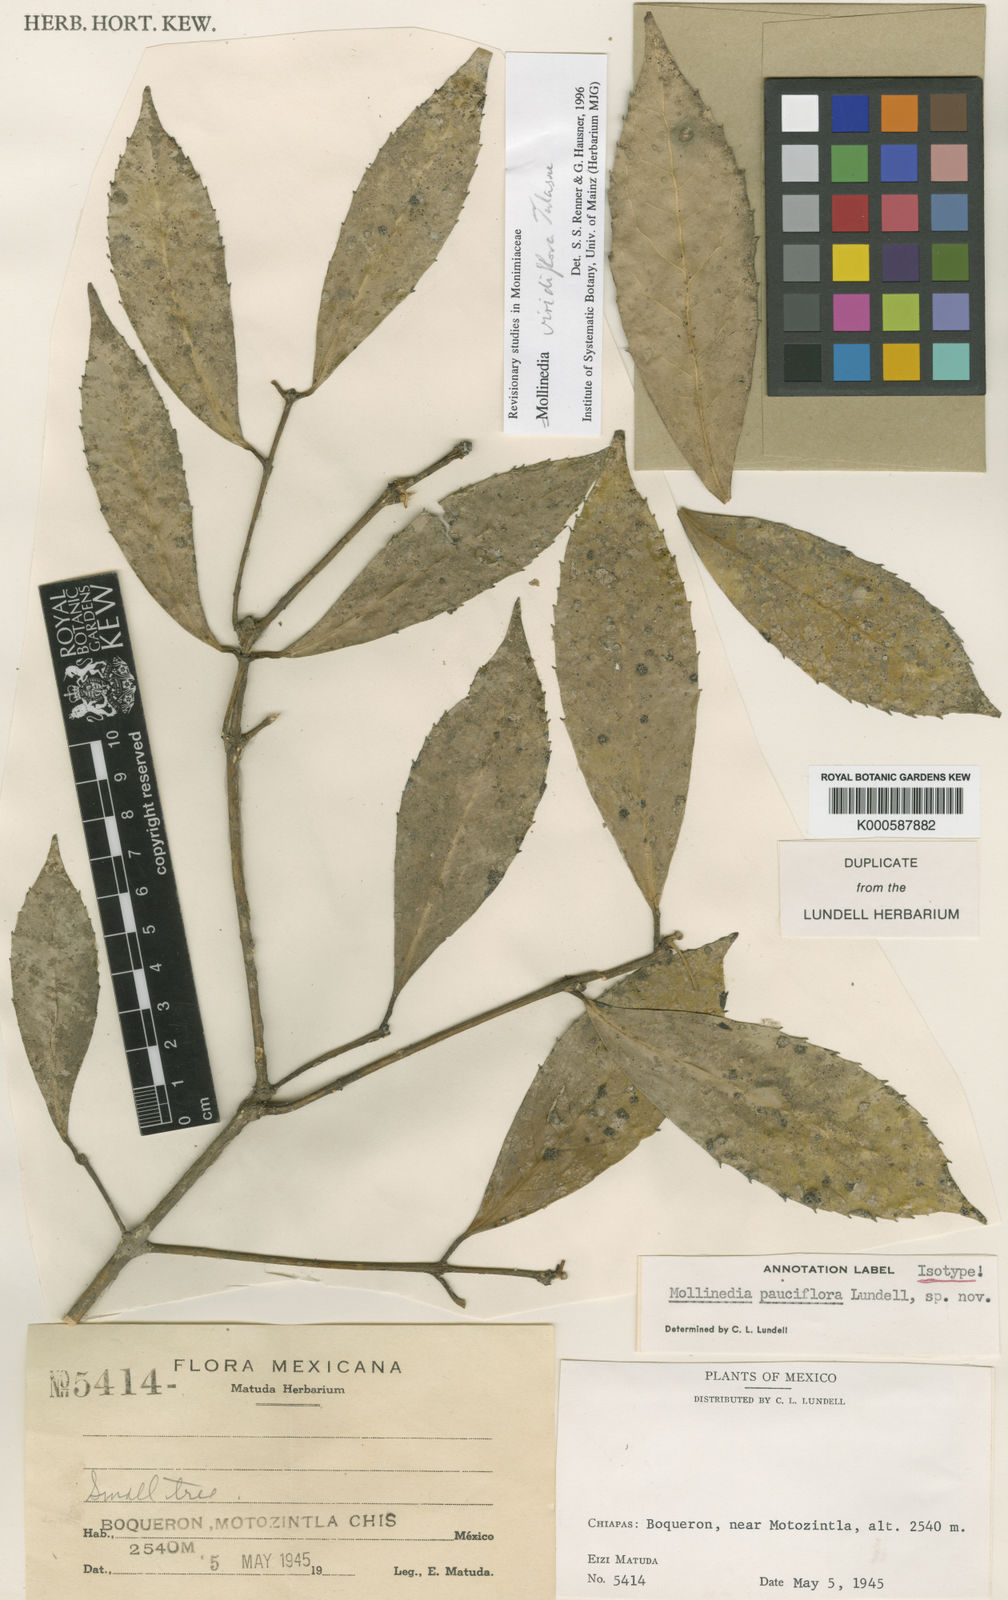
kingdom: Plantae
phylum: Tracheophyta
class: Magnoliopsida
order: Laurales
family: Monimiaceae
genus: Mollinedia
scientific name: Mollinedia pallida
